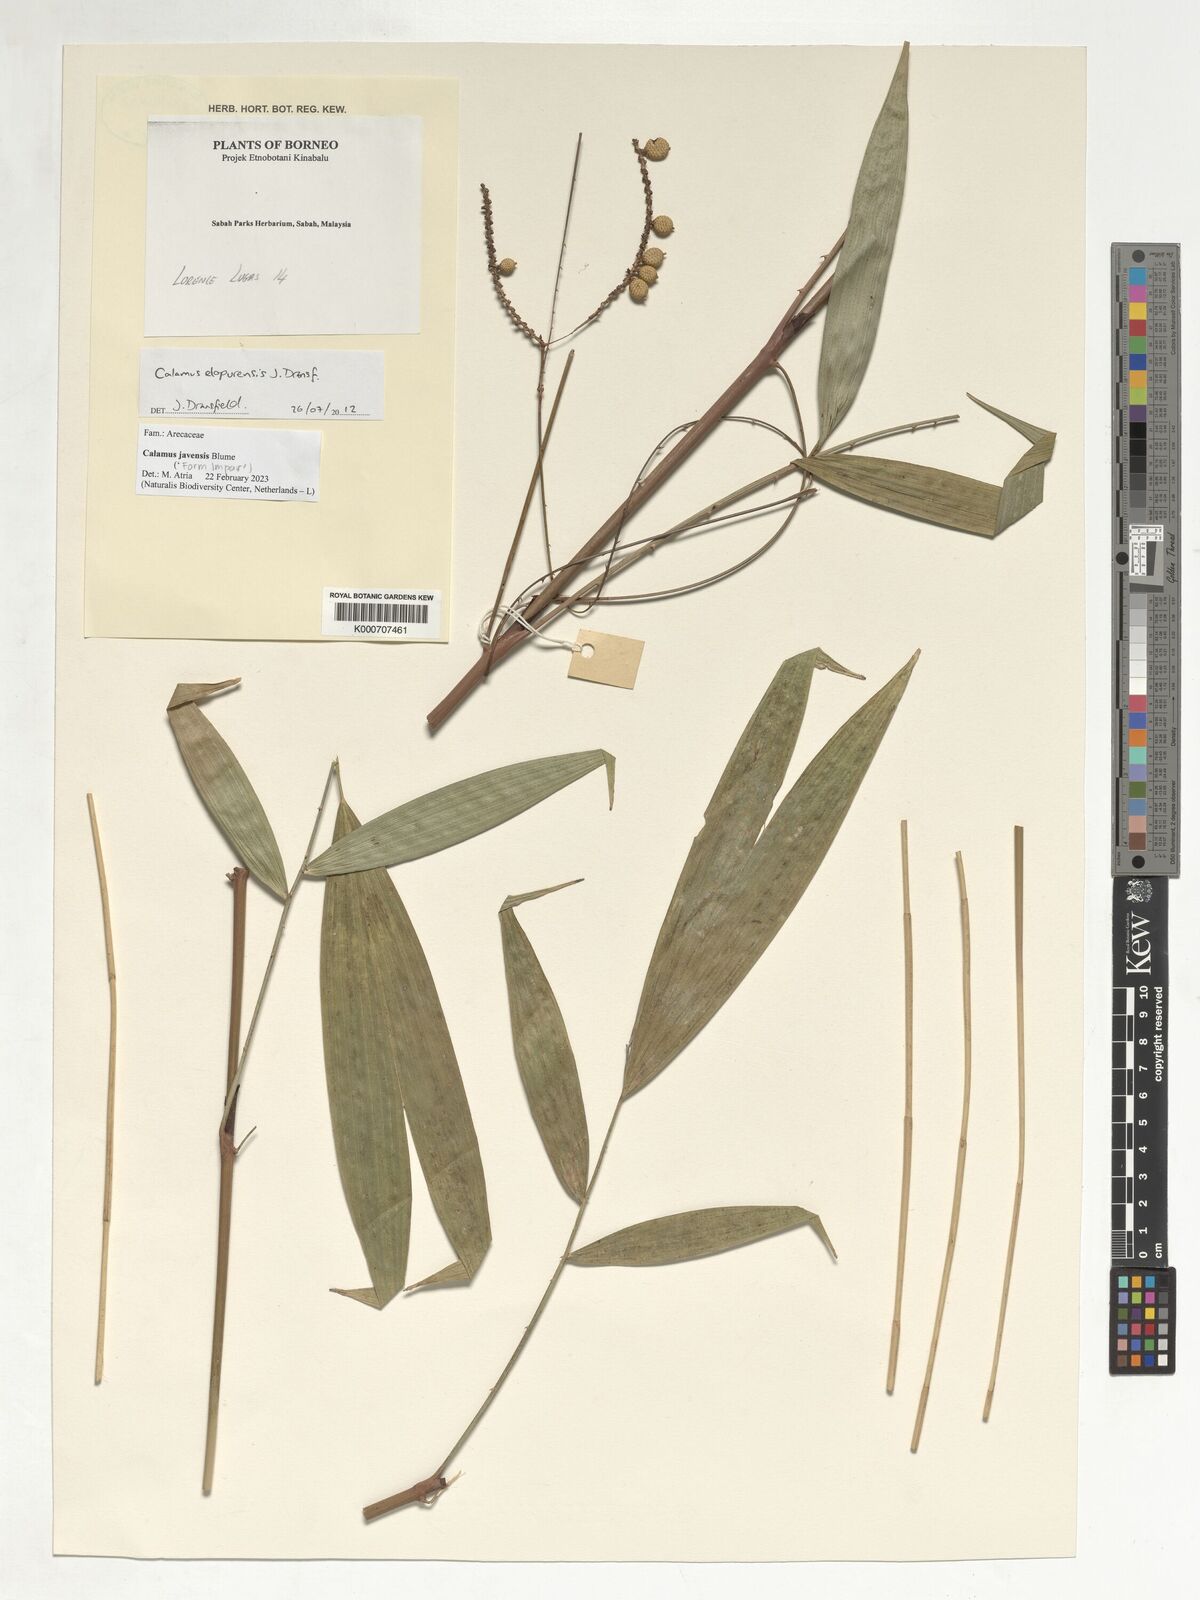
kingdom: Plantae
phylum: Tracheophyta
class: Liliopsida
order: Arecales
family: Arecaceae
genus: Calamus
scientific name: Calamus javensis
